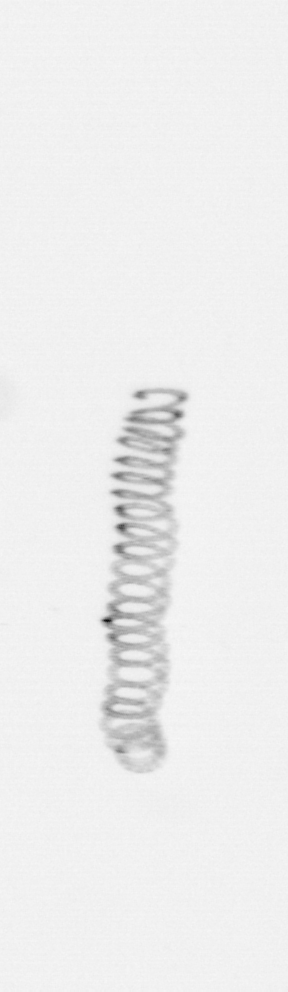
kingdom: Chromista
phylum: Ochrophyta
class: Bacillariophyceae
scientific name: Bacillariophyceae
